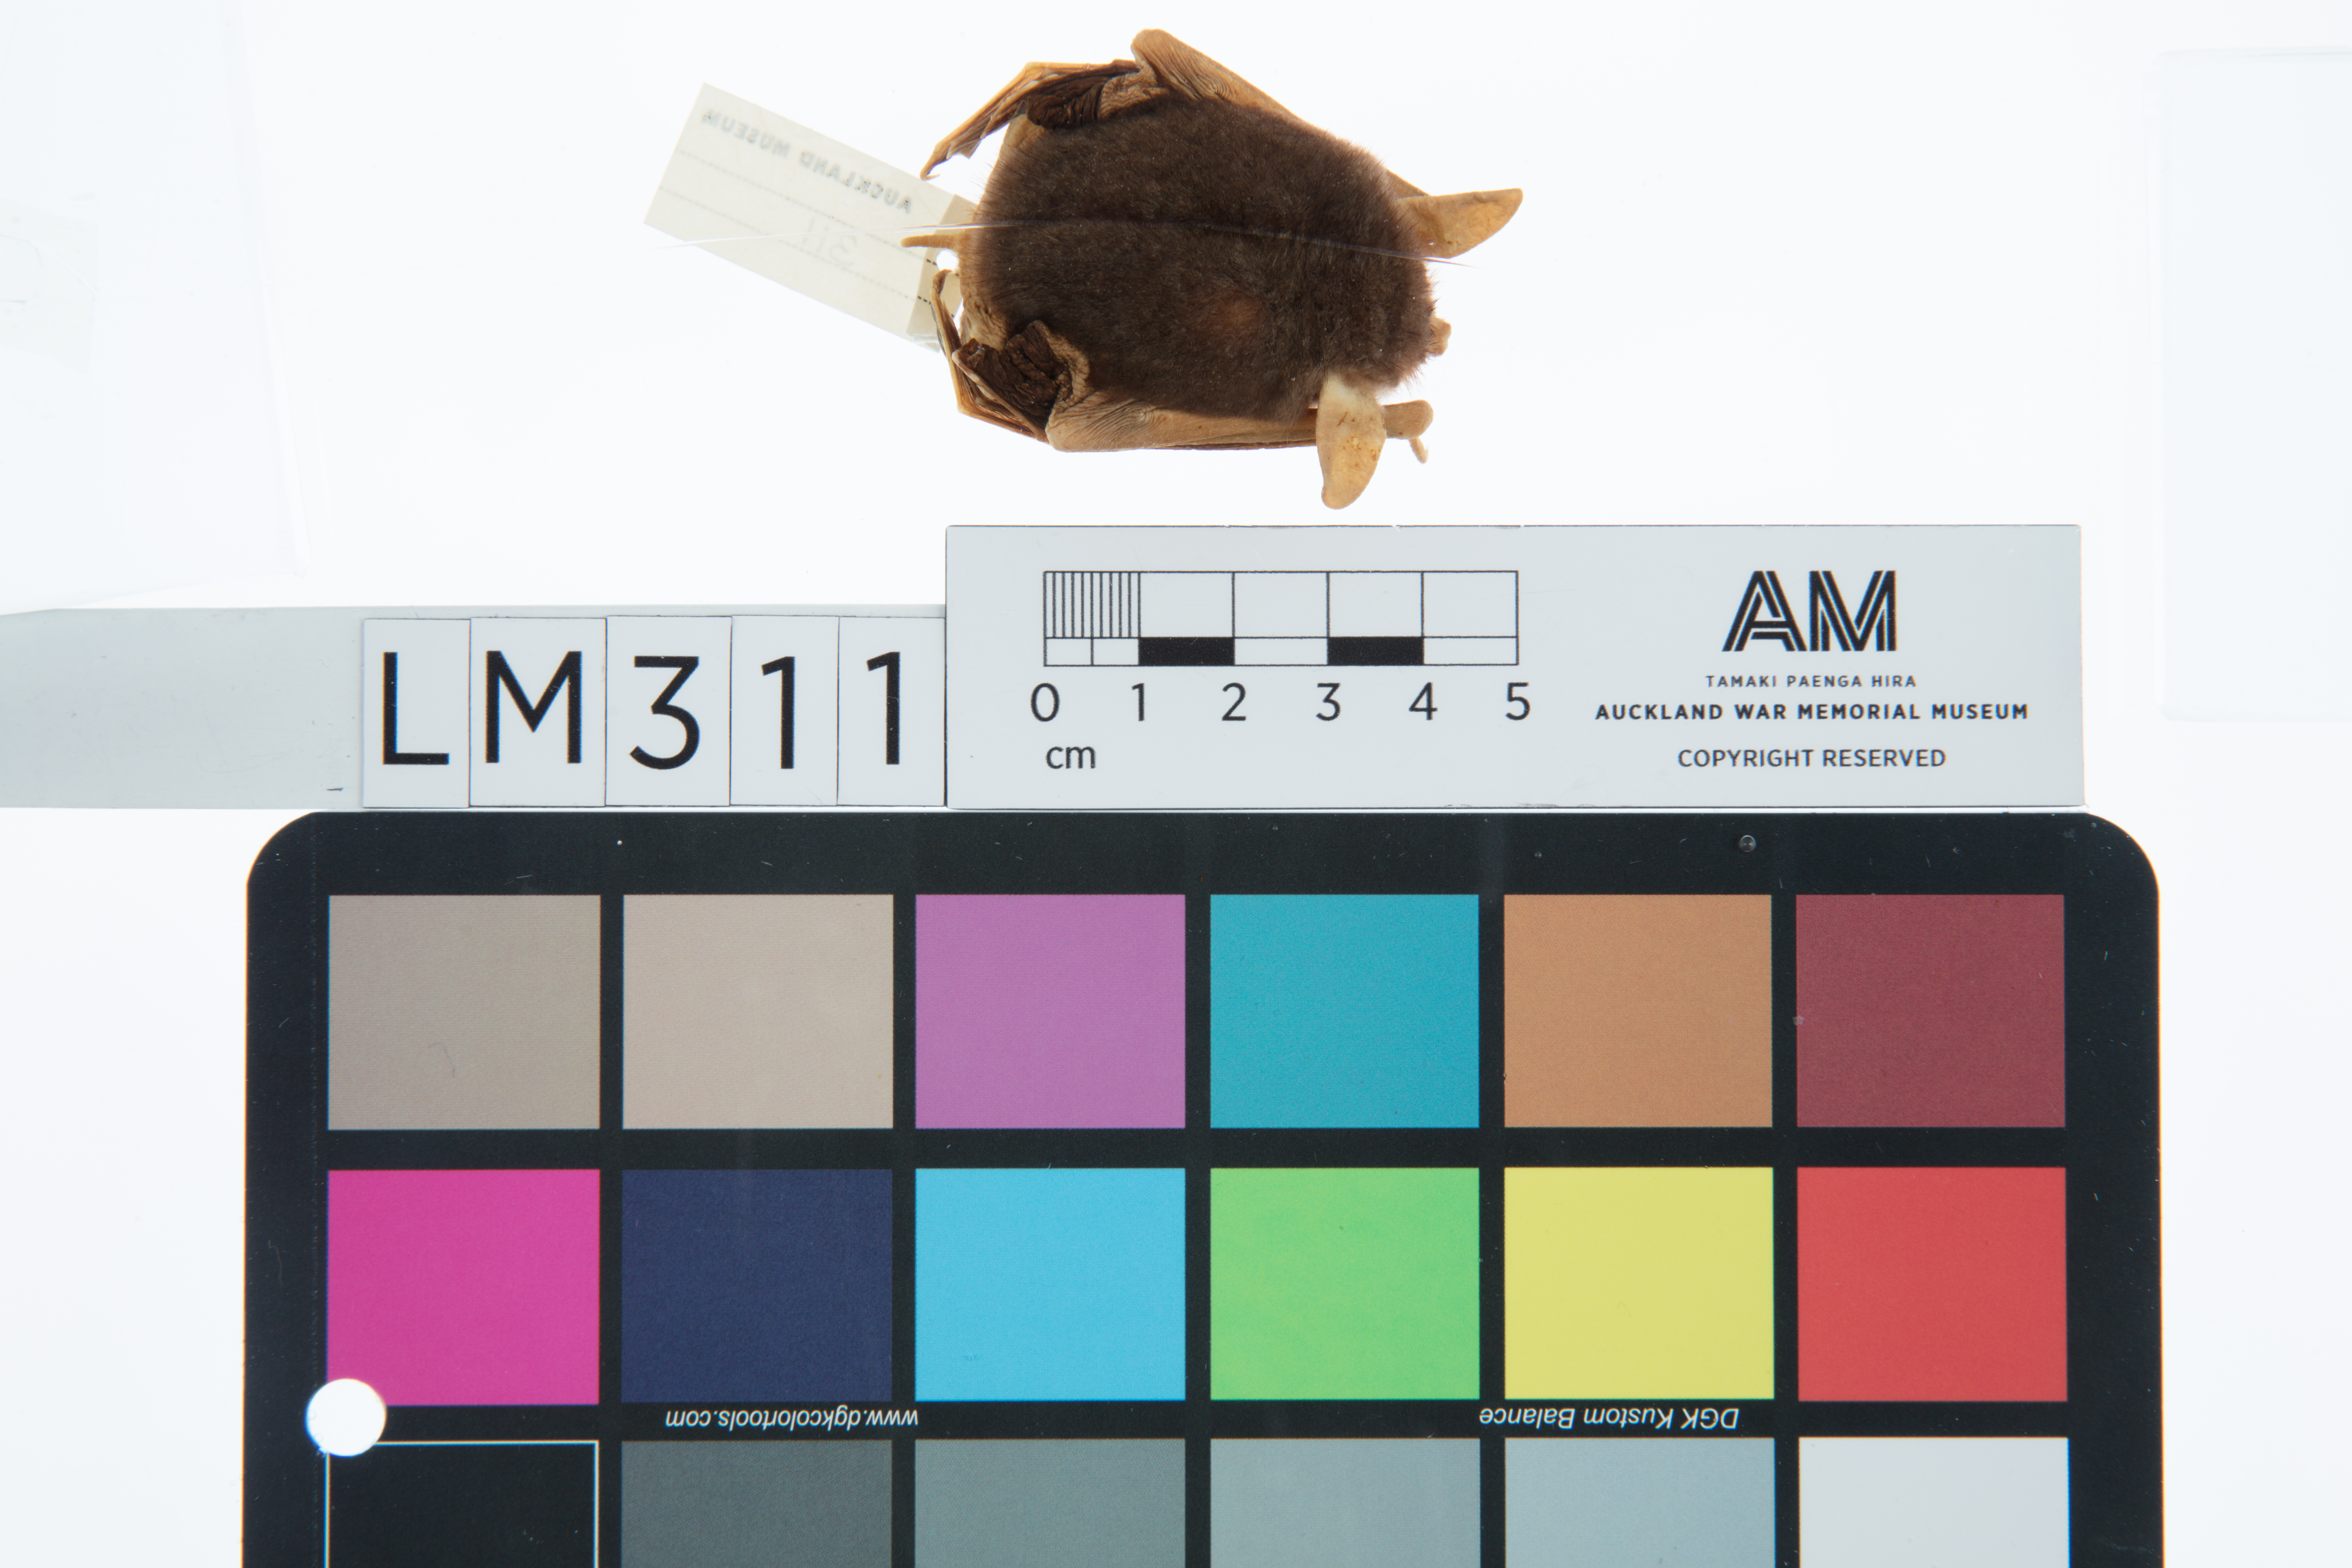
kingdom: Animalia
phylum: Chordata
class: Mammalia
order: Chiroptera
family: Mystacinidae
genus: Mystacina
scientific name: Mystacina tuberculata
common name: New zealand lesser short-tailed bat
